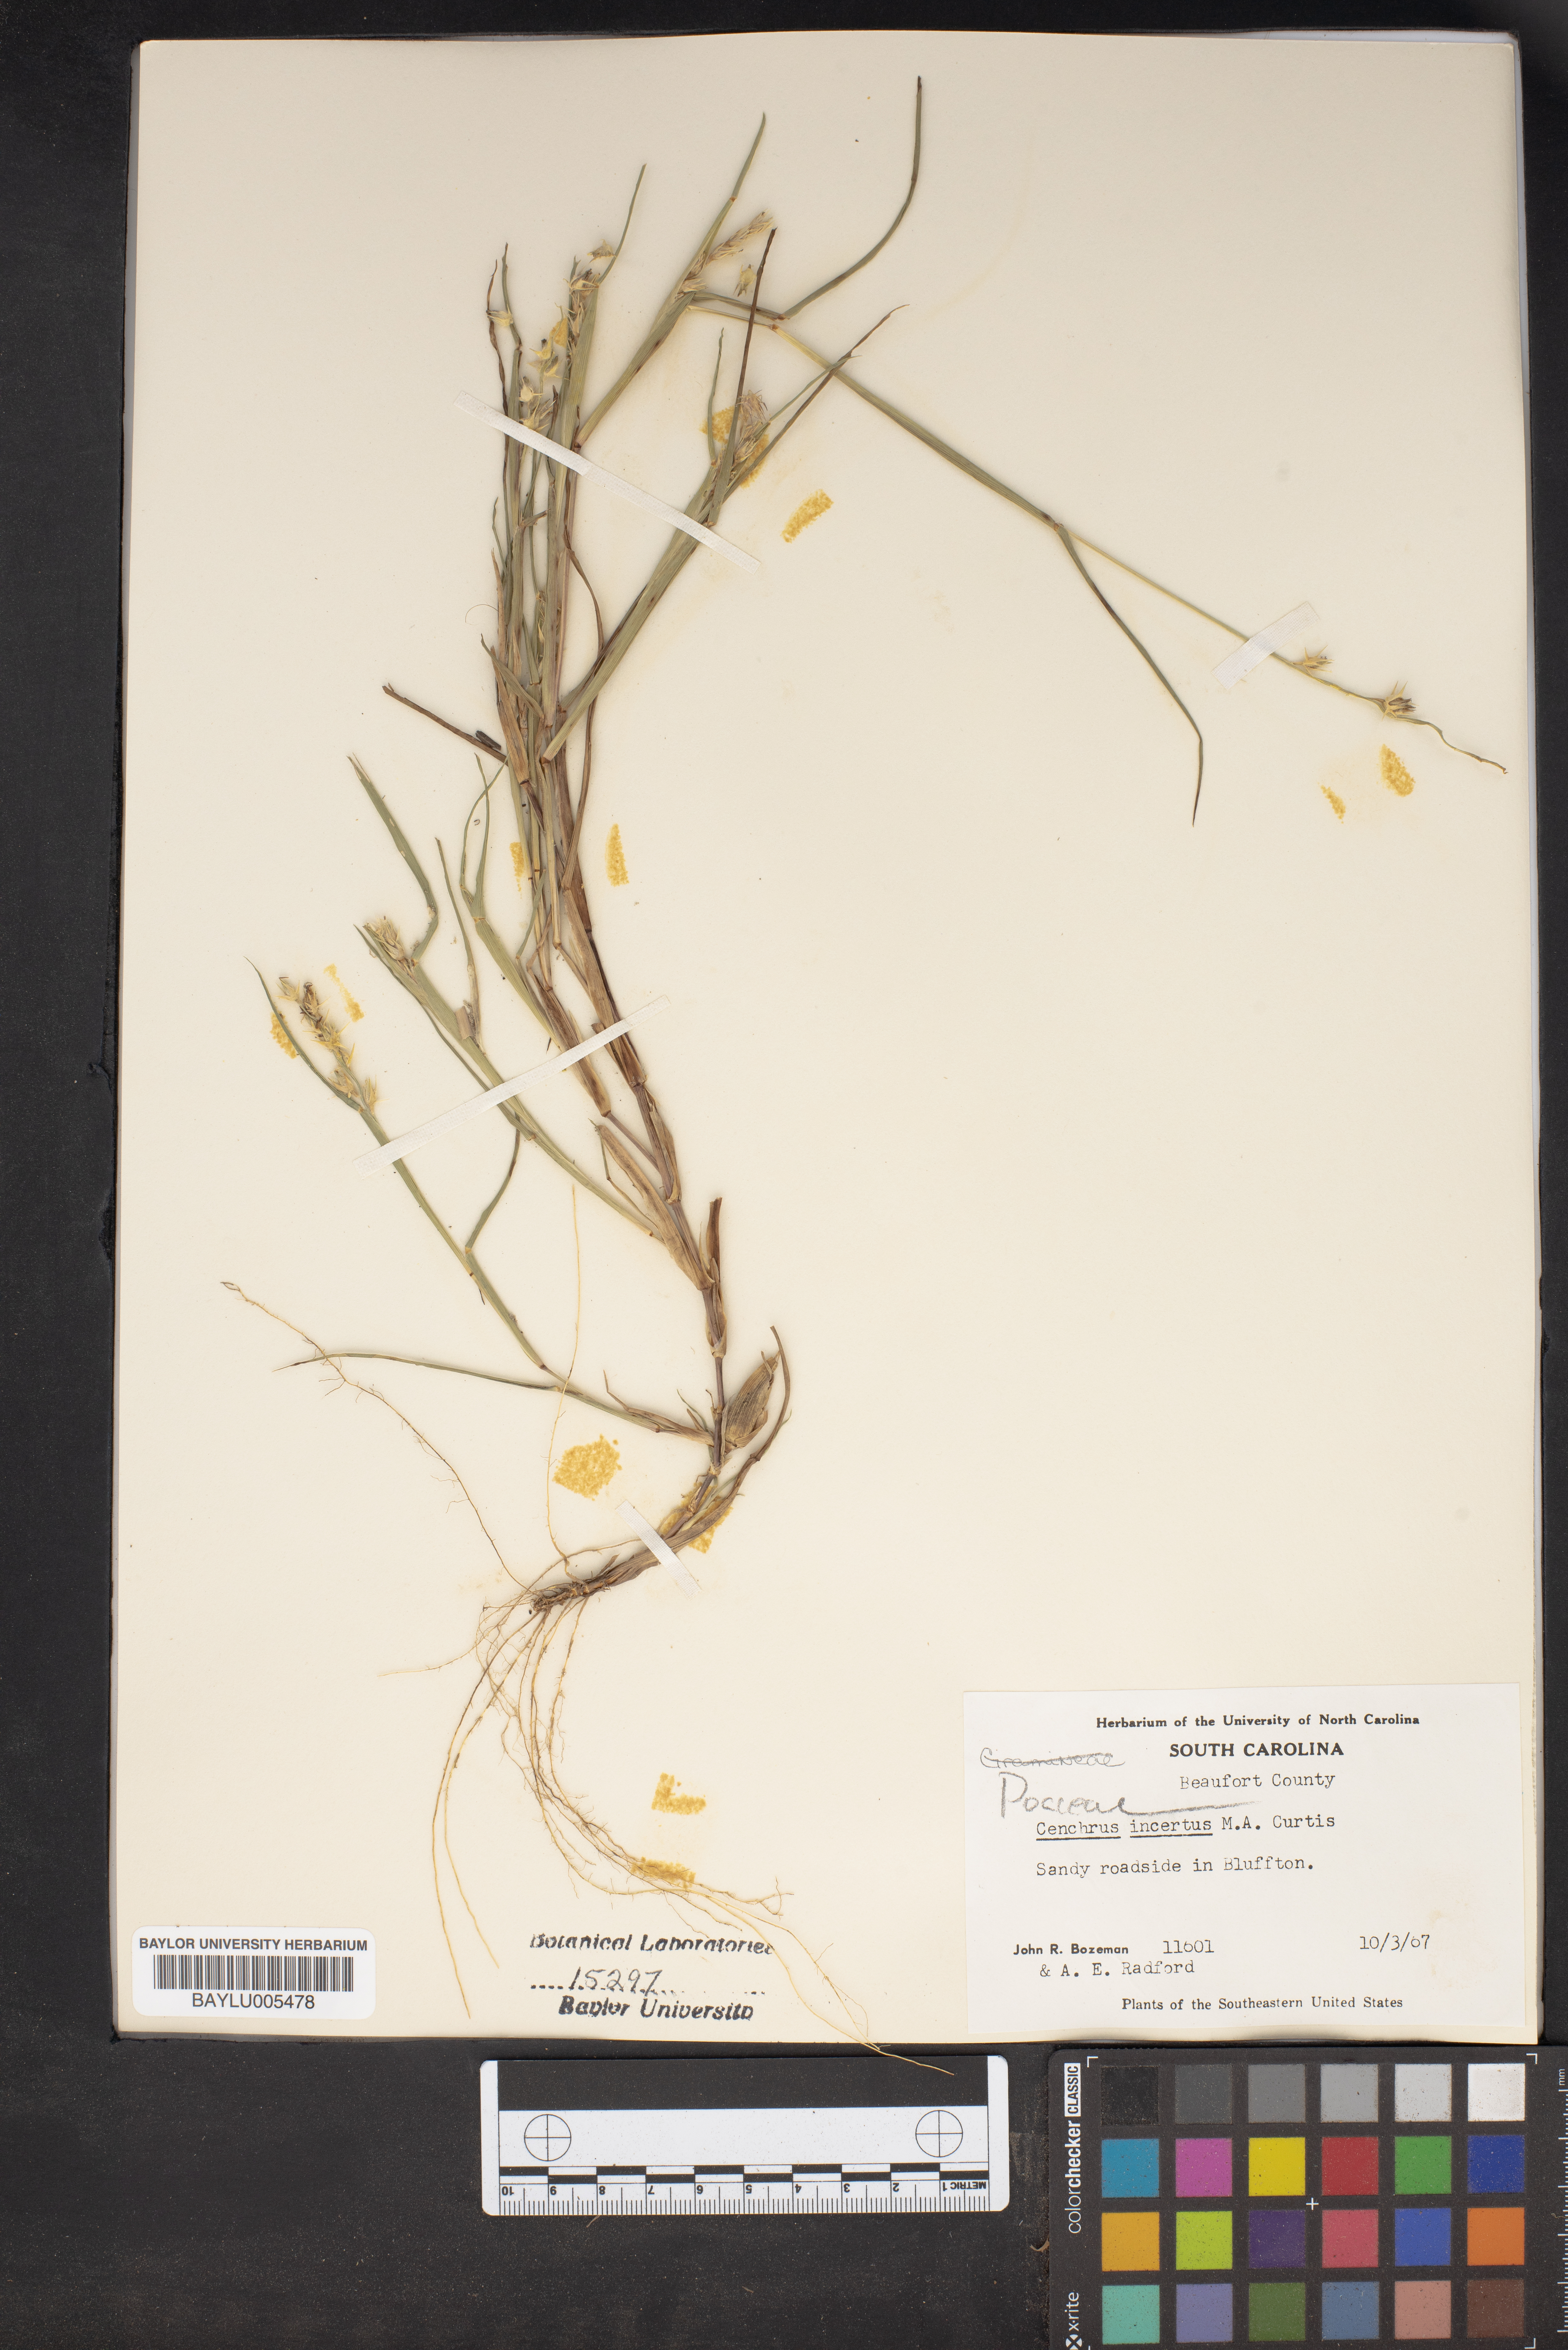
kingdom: Plantae
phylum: Tracheophyta
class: Liliopsida
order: Poales
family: Poaceae
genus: Cenchrus
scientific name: Cenchrus spinifex
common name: Coast sandbur
